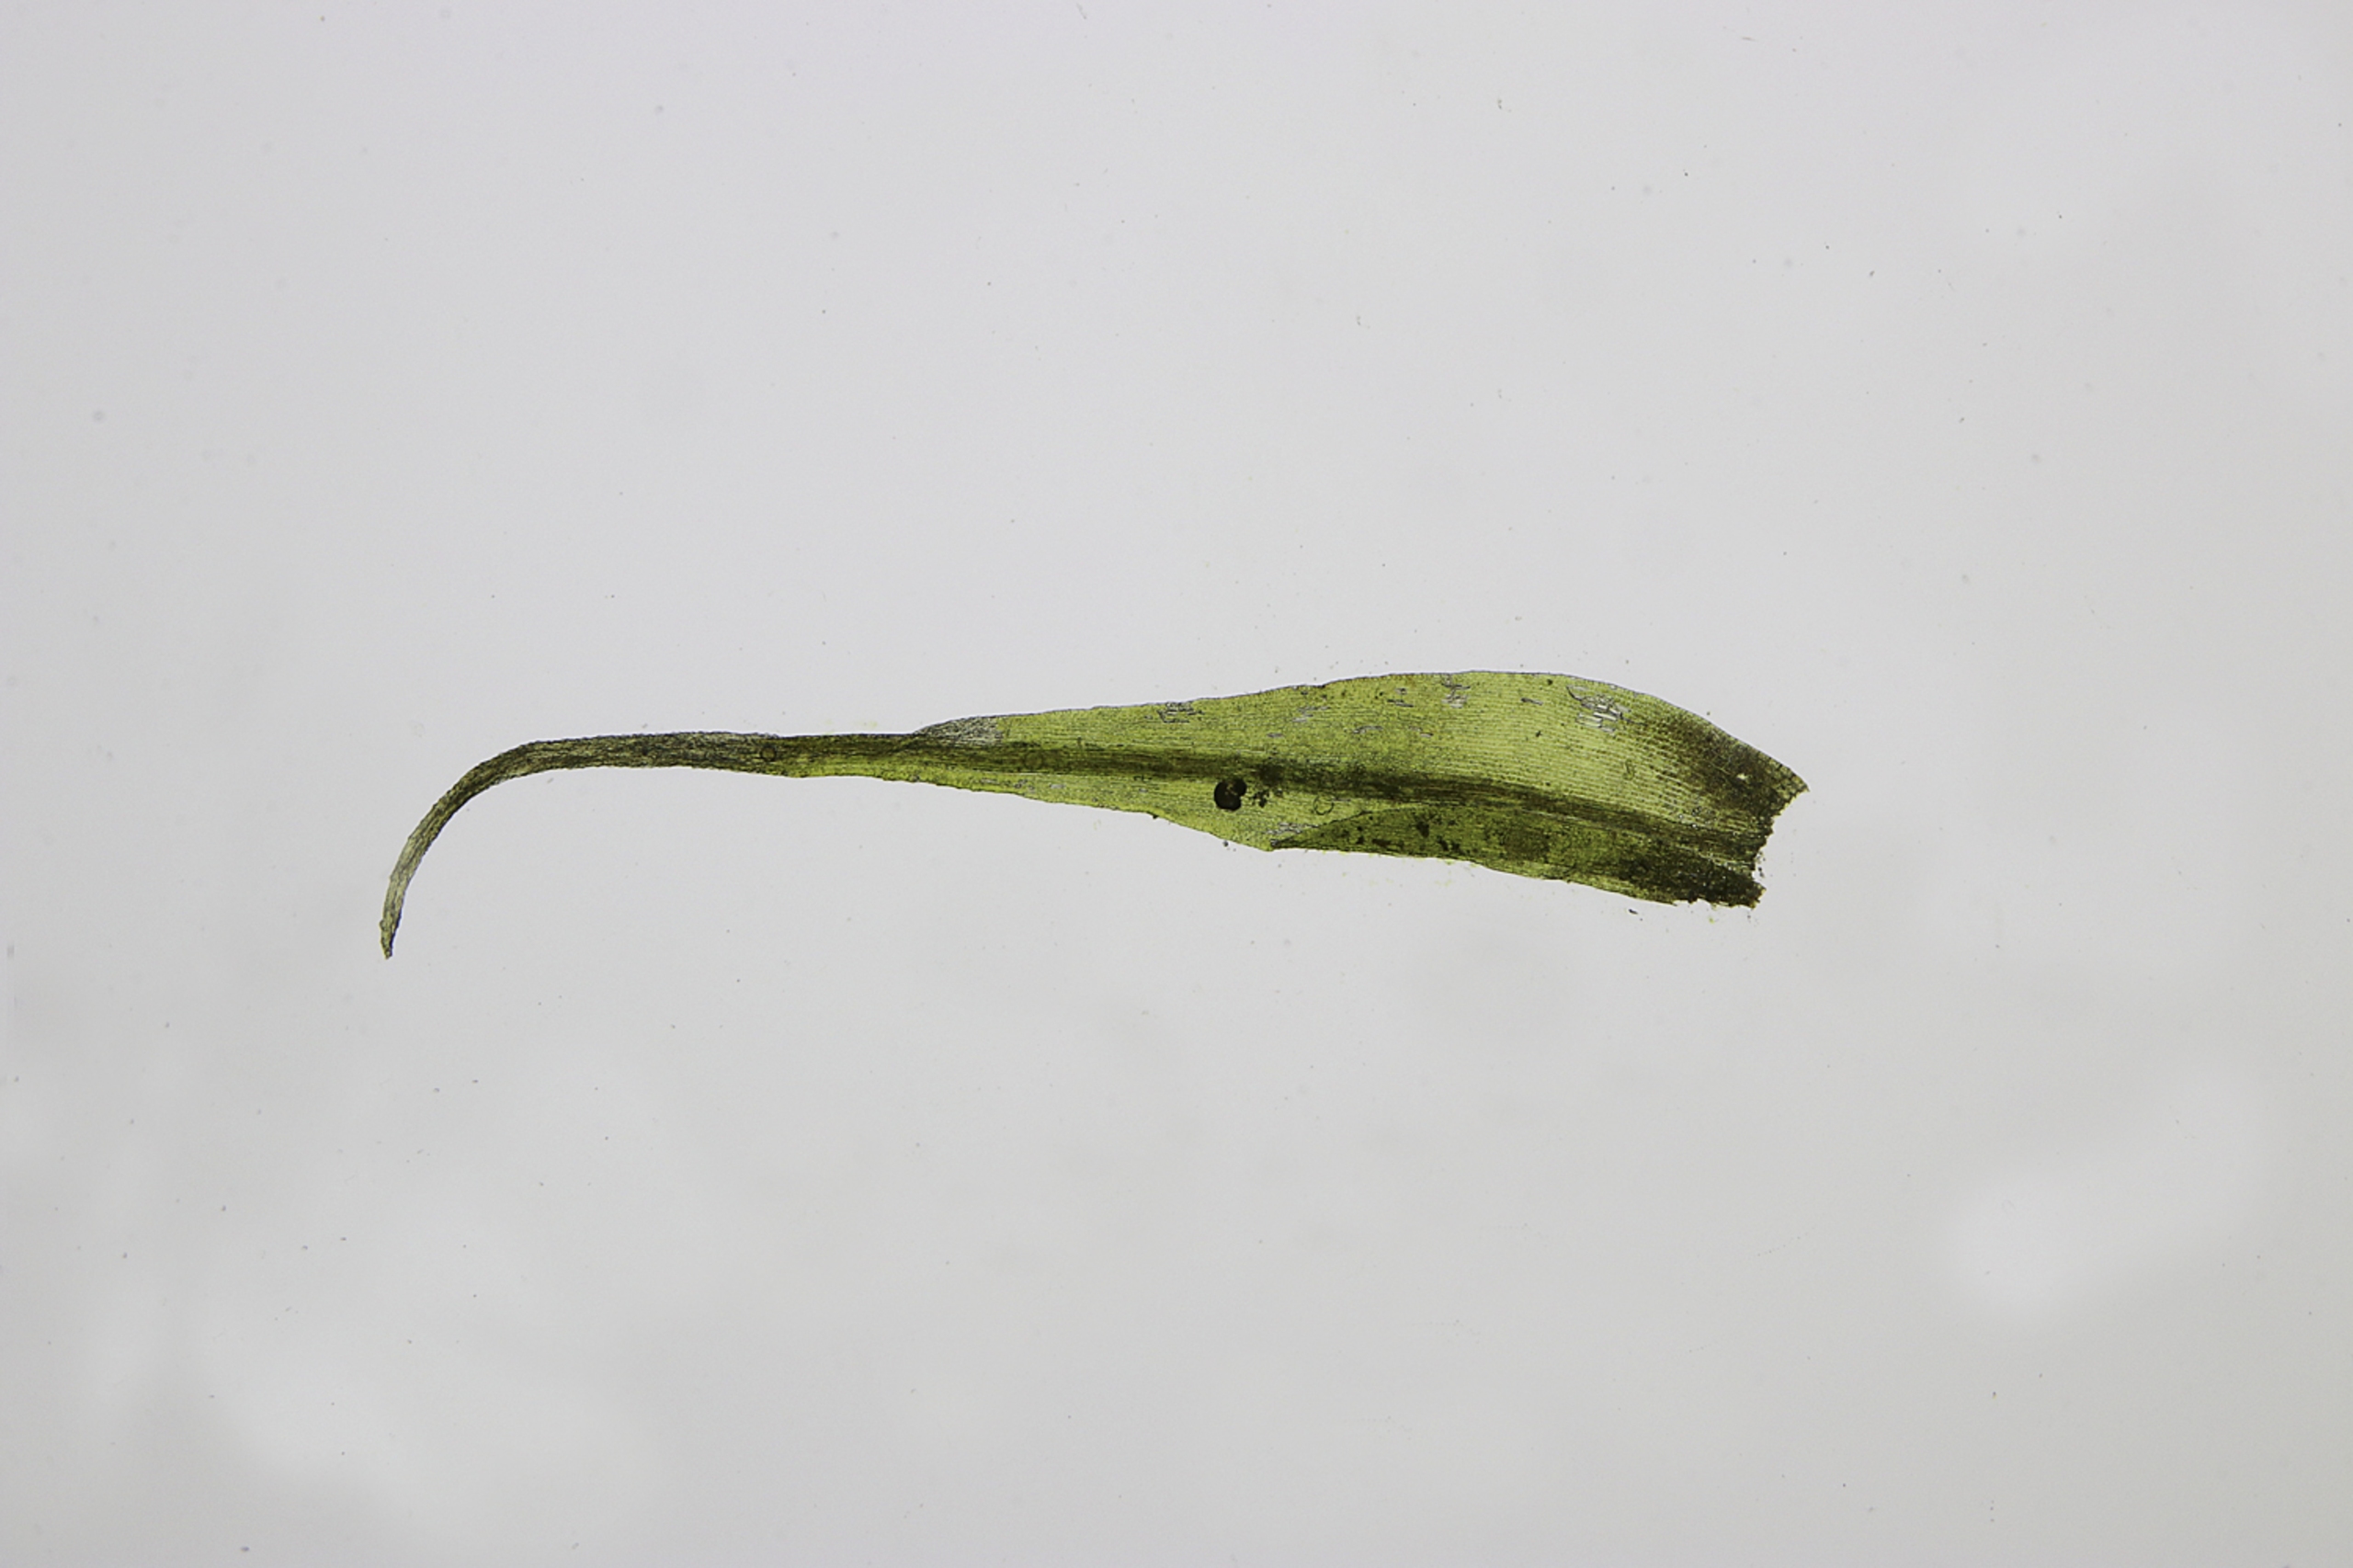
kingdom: Plantae
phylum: Bryophyta
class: Bryopsida
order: Dicranales
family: Rhabdoweisiaceae
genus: Arctoa
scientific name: Arctoa blyttii
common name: Kruset strumamos
